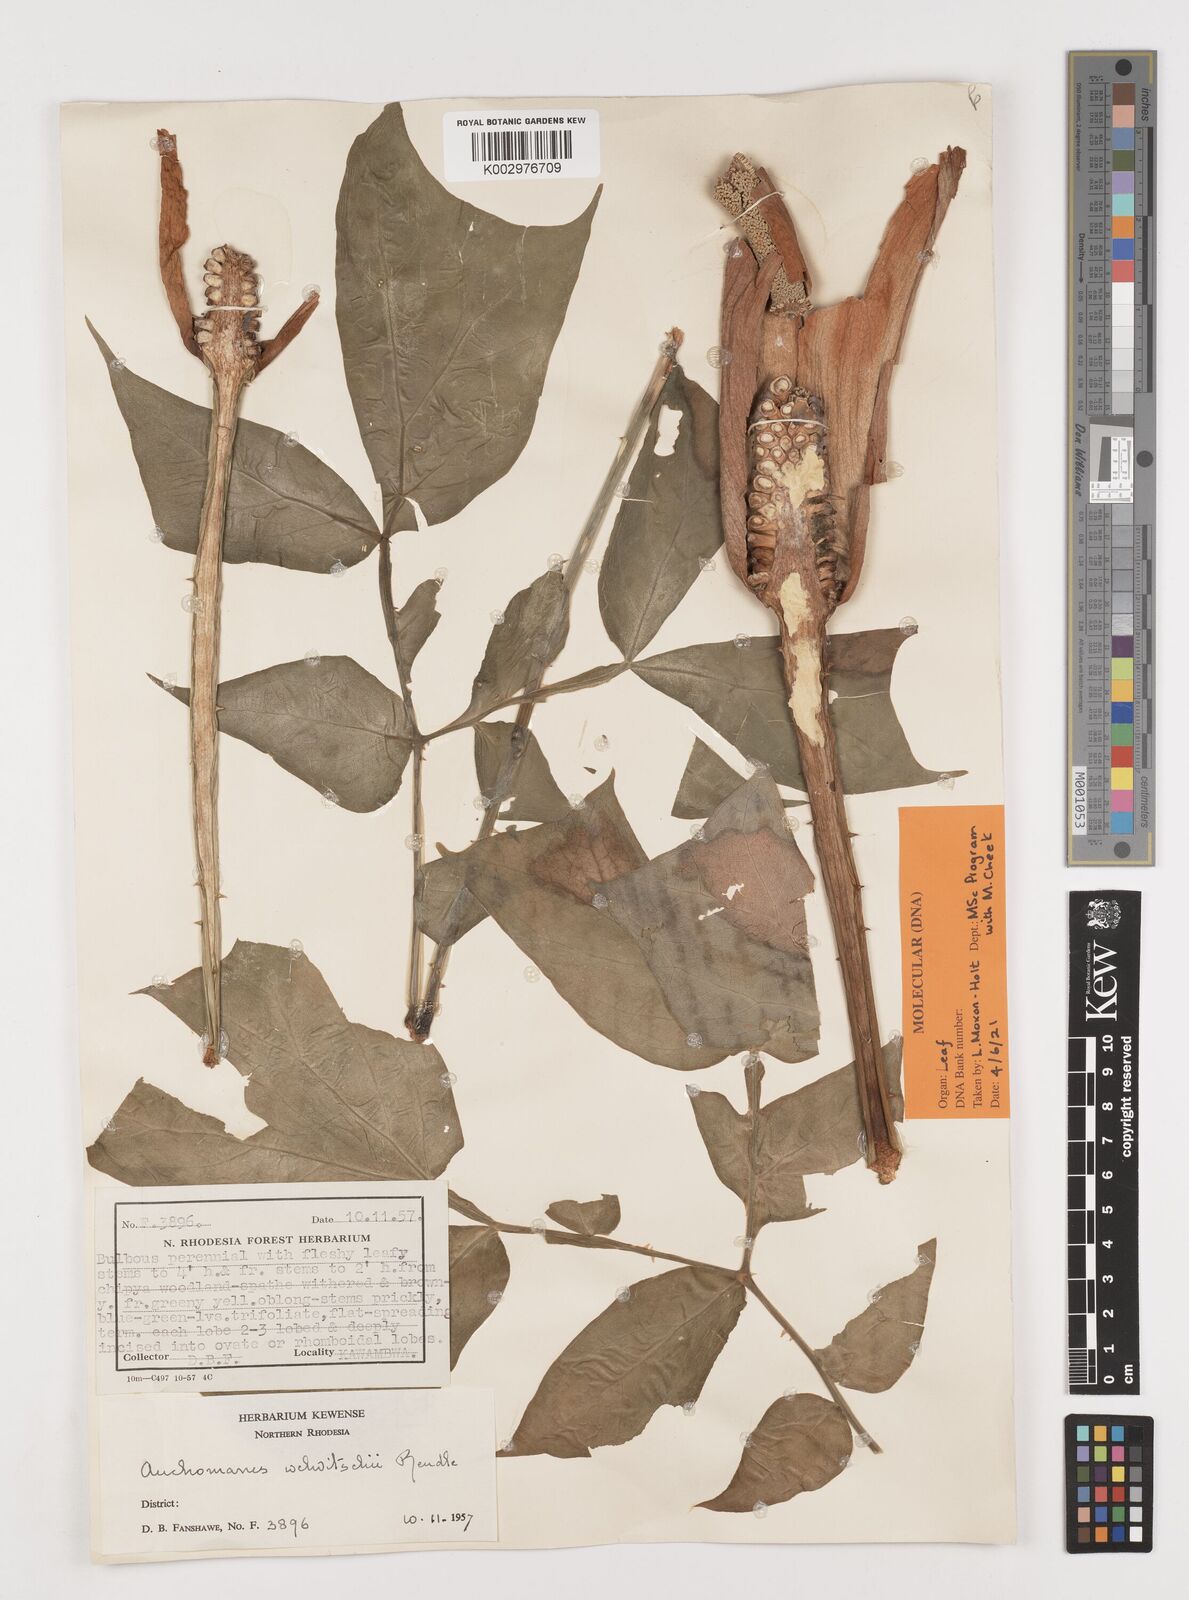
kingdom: Plantae
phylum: Tracheophyta
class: Liliopsida
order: Alismatales
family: Araceae
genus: Anchomanes
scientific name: Anchomanes difformis
